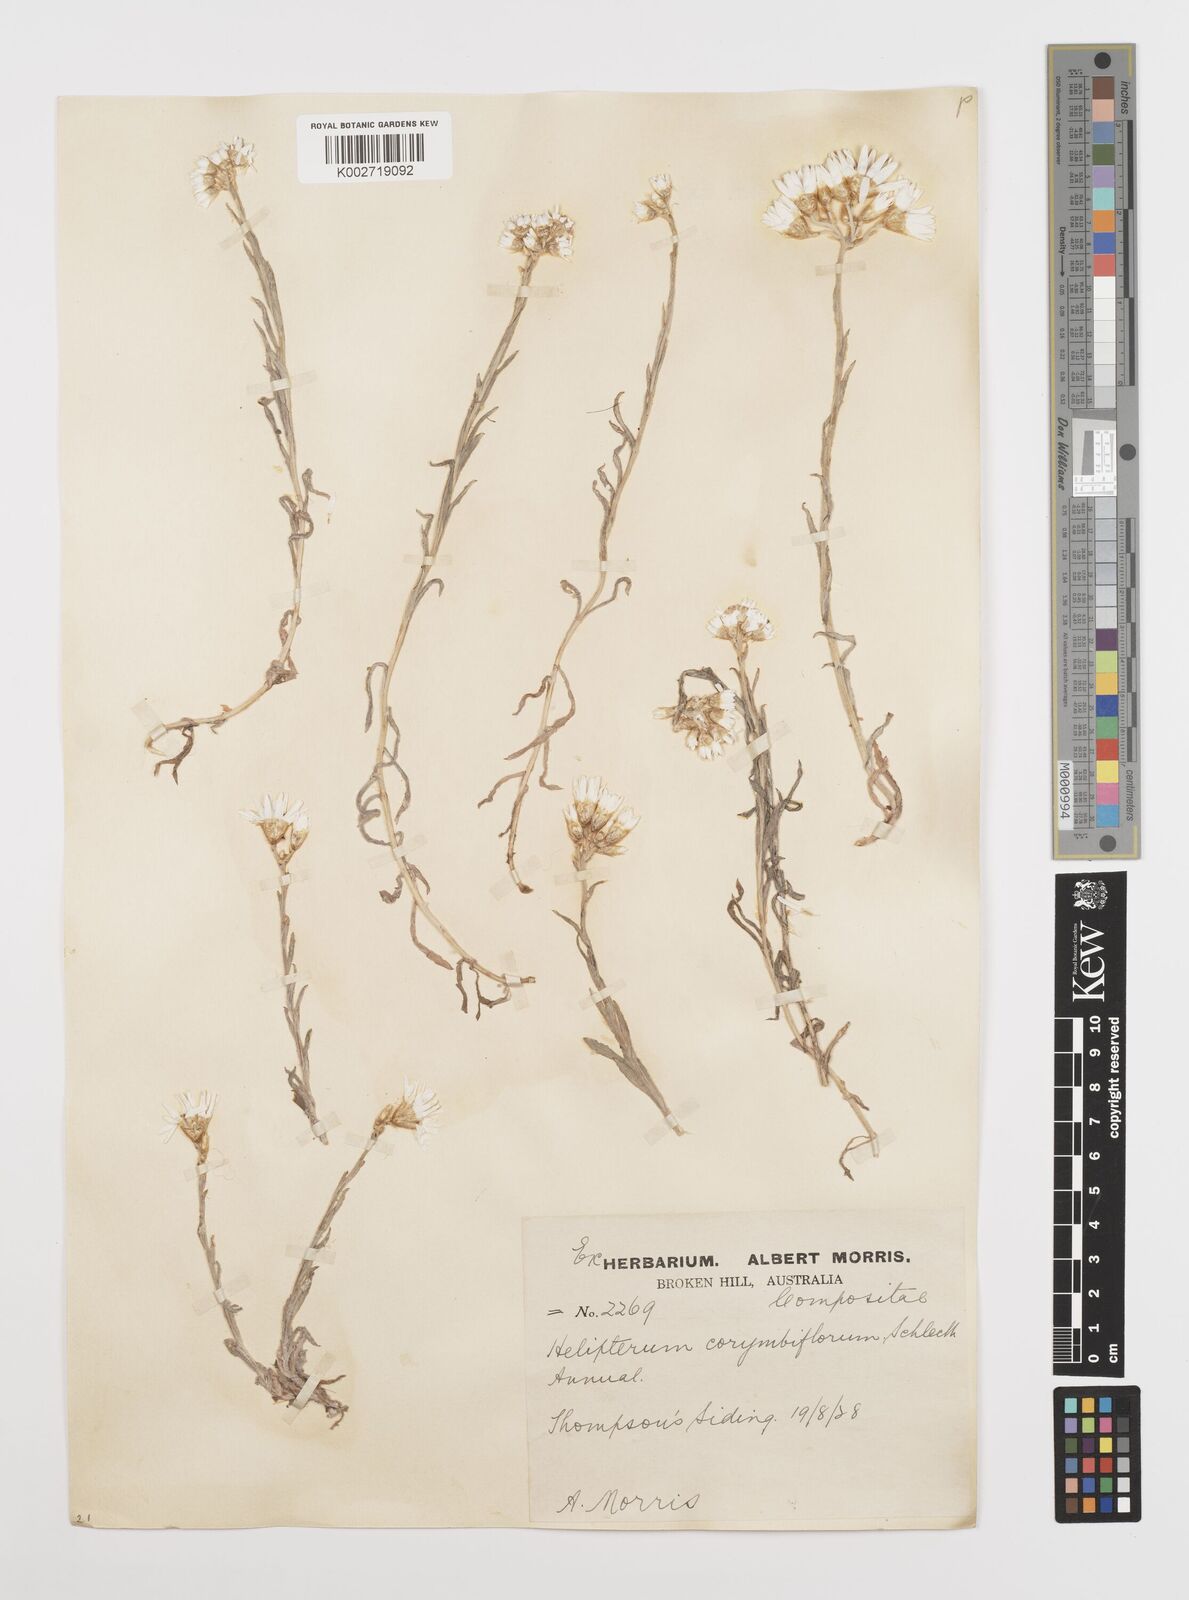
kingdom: Plantae
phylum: Tracheophyta
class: Magnoliopsida
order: Asterales
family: Asteraceae
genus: Rhodanthe
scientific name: Rhodanthe corymbiflora
